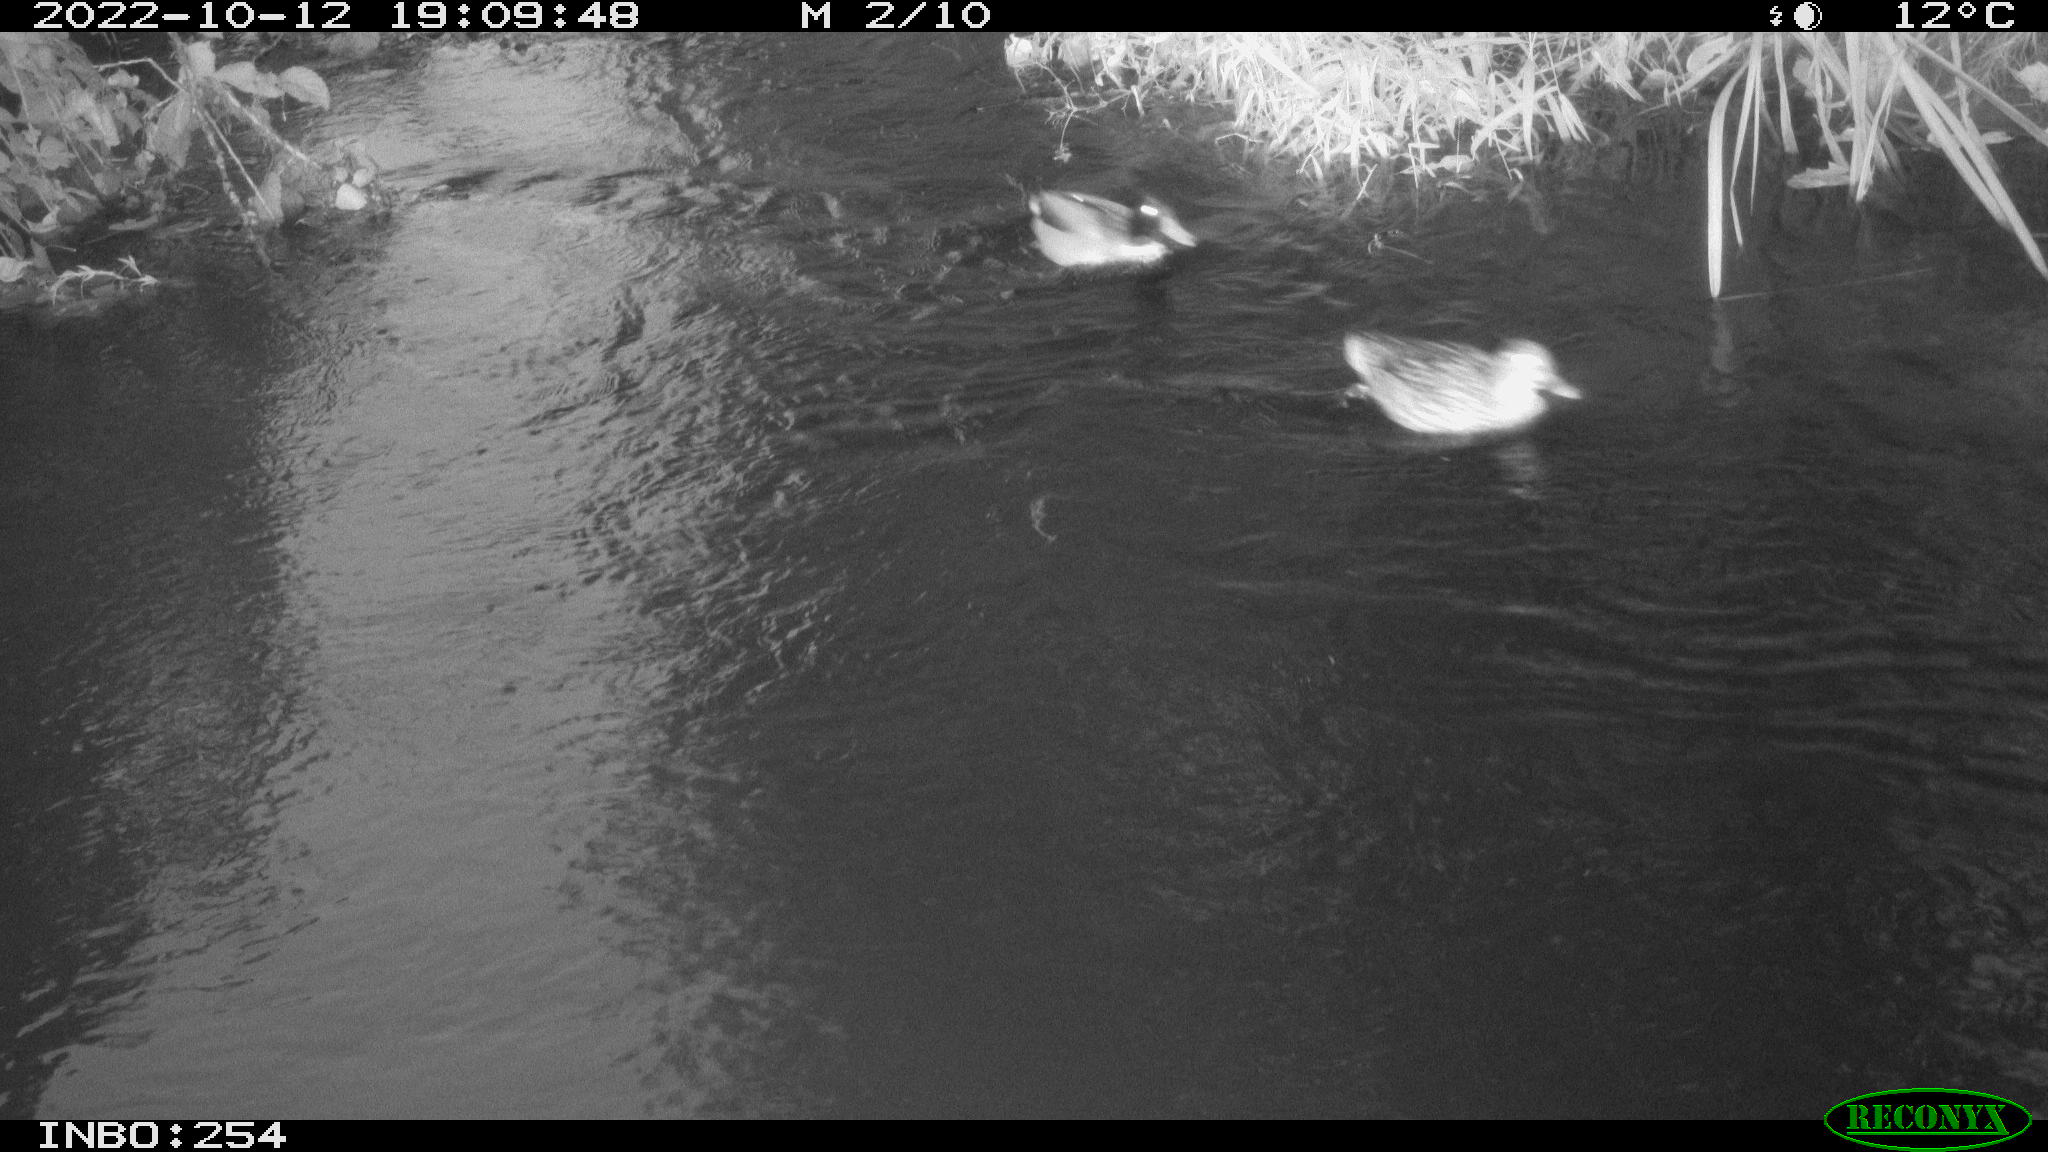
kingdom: Animalia
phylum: Chordata
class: Aves
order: Anseriformes
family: Anatidae
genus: Anas
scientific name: Anas
